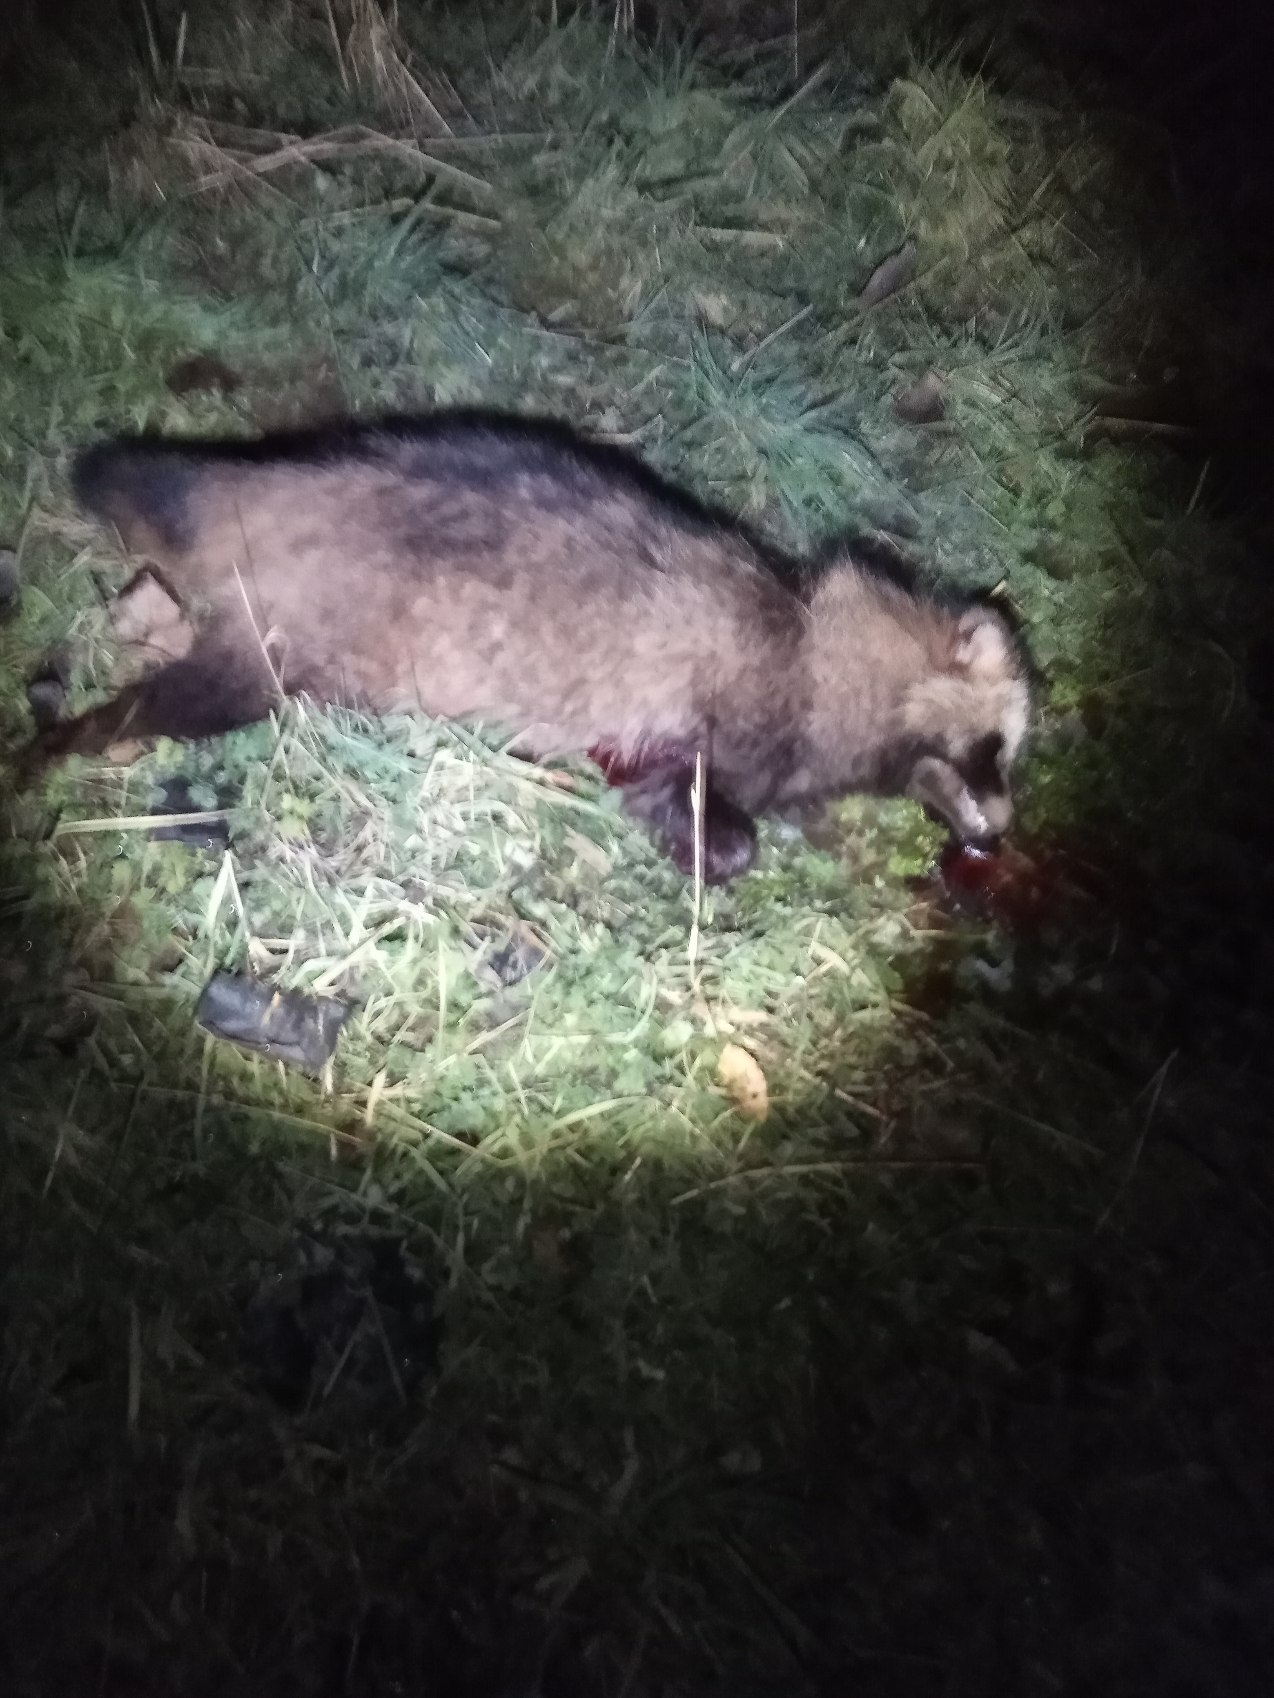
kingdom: Animalia
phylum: Chordata
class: Mammalia
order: Carnivora
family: Canidae
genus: Nyctereutes
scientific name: Nyctereutes procyonoides
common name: Mårhund
